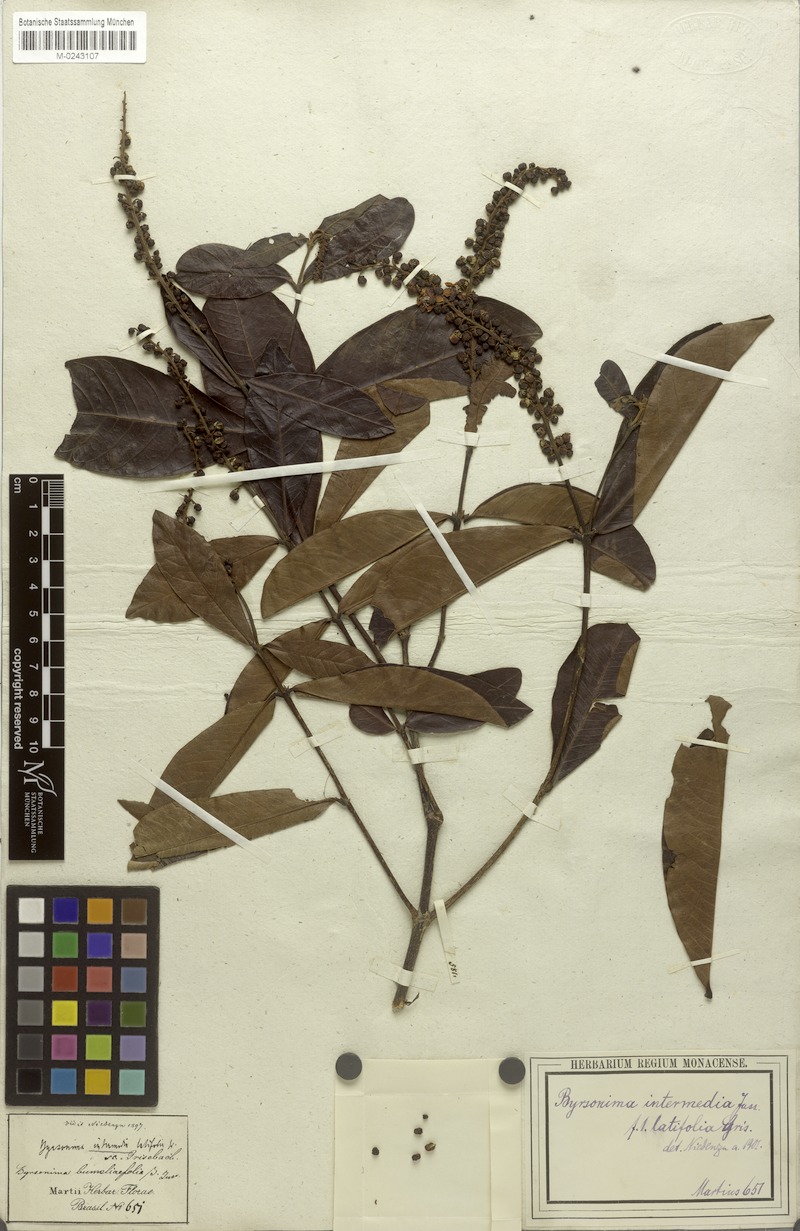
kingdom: Plantae
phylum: Tracheophyta
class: Magnoliopsida
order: Malpighiales
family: Malpighiaceae
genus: Byrsonima
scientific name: Byrsonima intermedia
